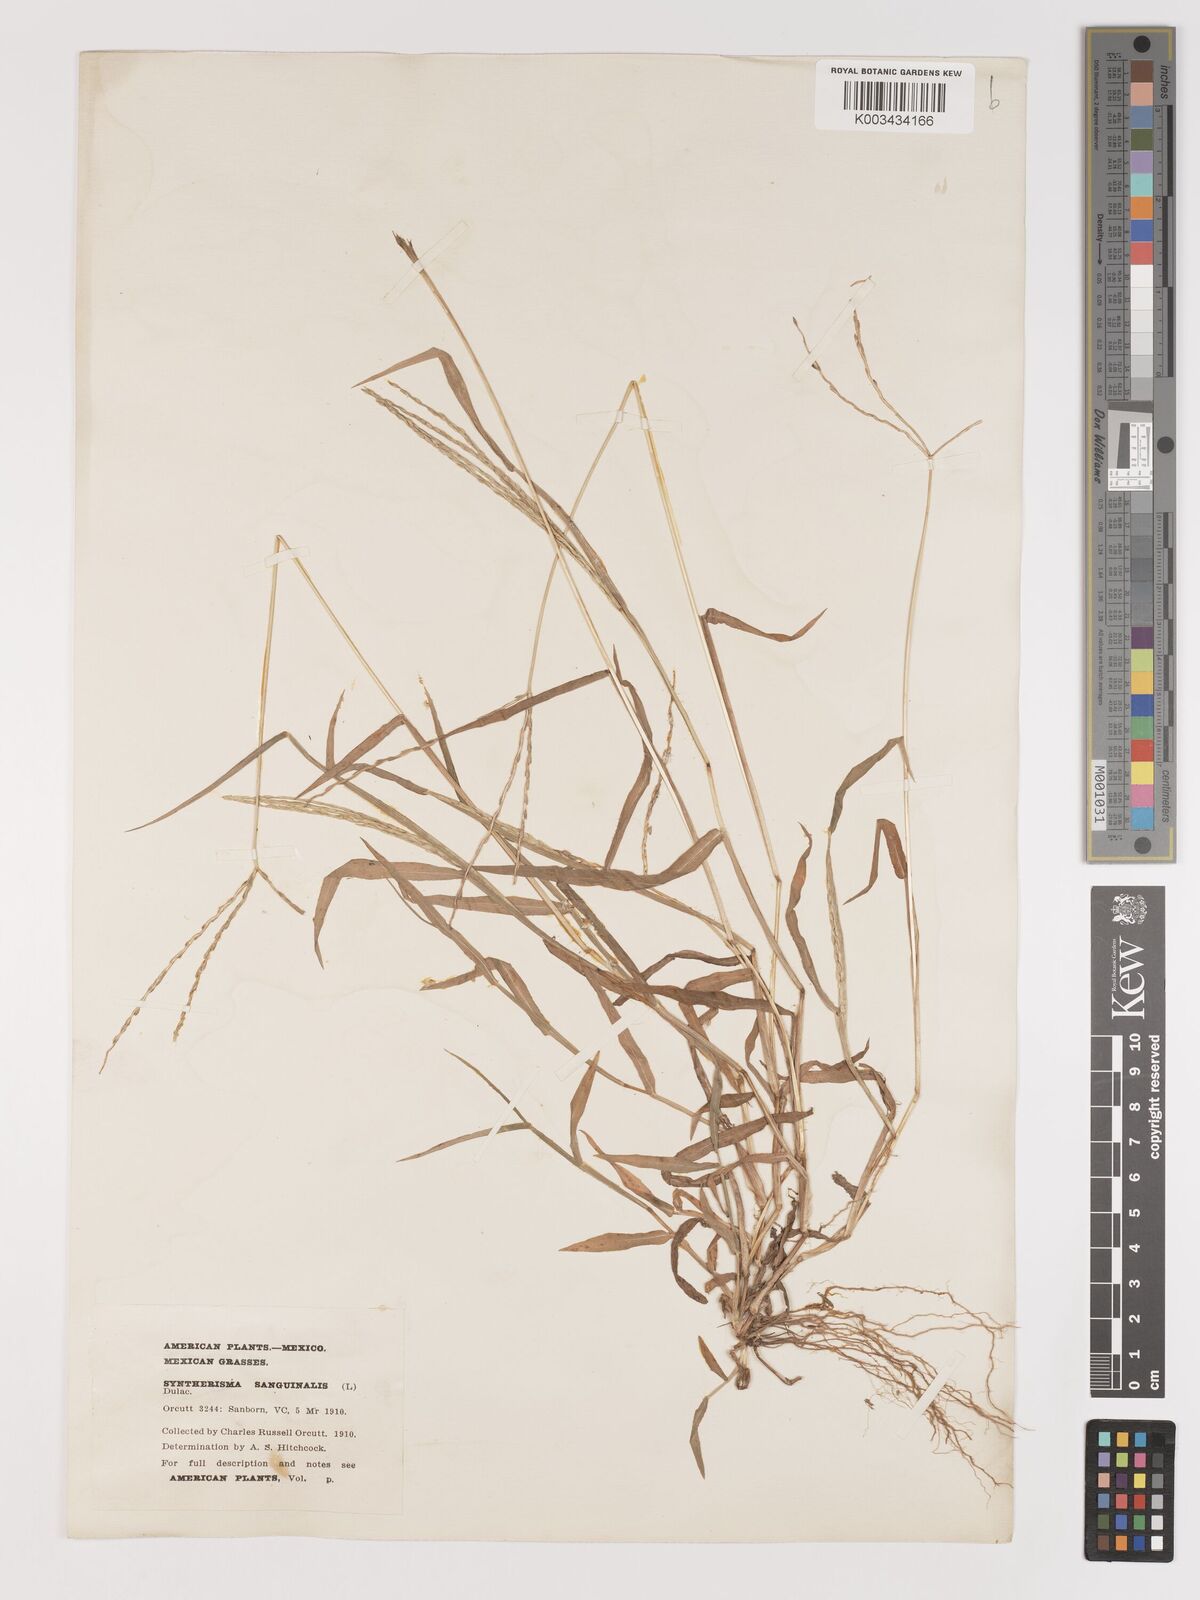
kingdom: Plantae
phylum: Tracheophyta
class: Liliopsida
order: Poales
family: Poaceae
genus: Digitaria
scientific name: Digitaria ciliaris
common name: Tropical finger-grass
